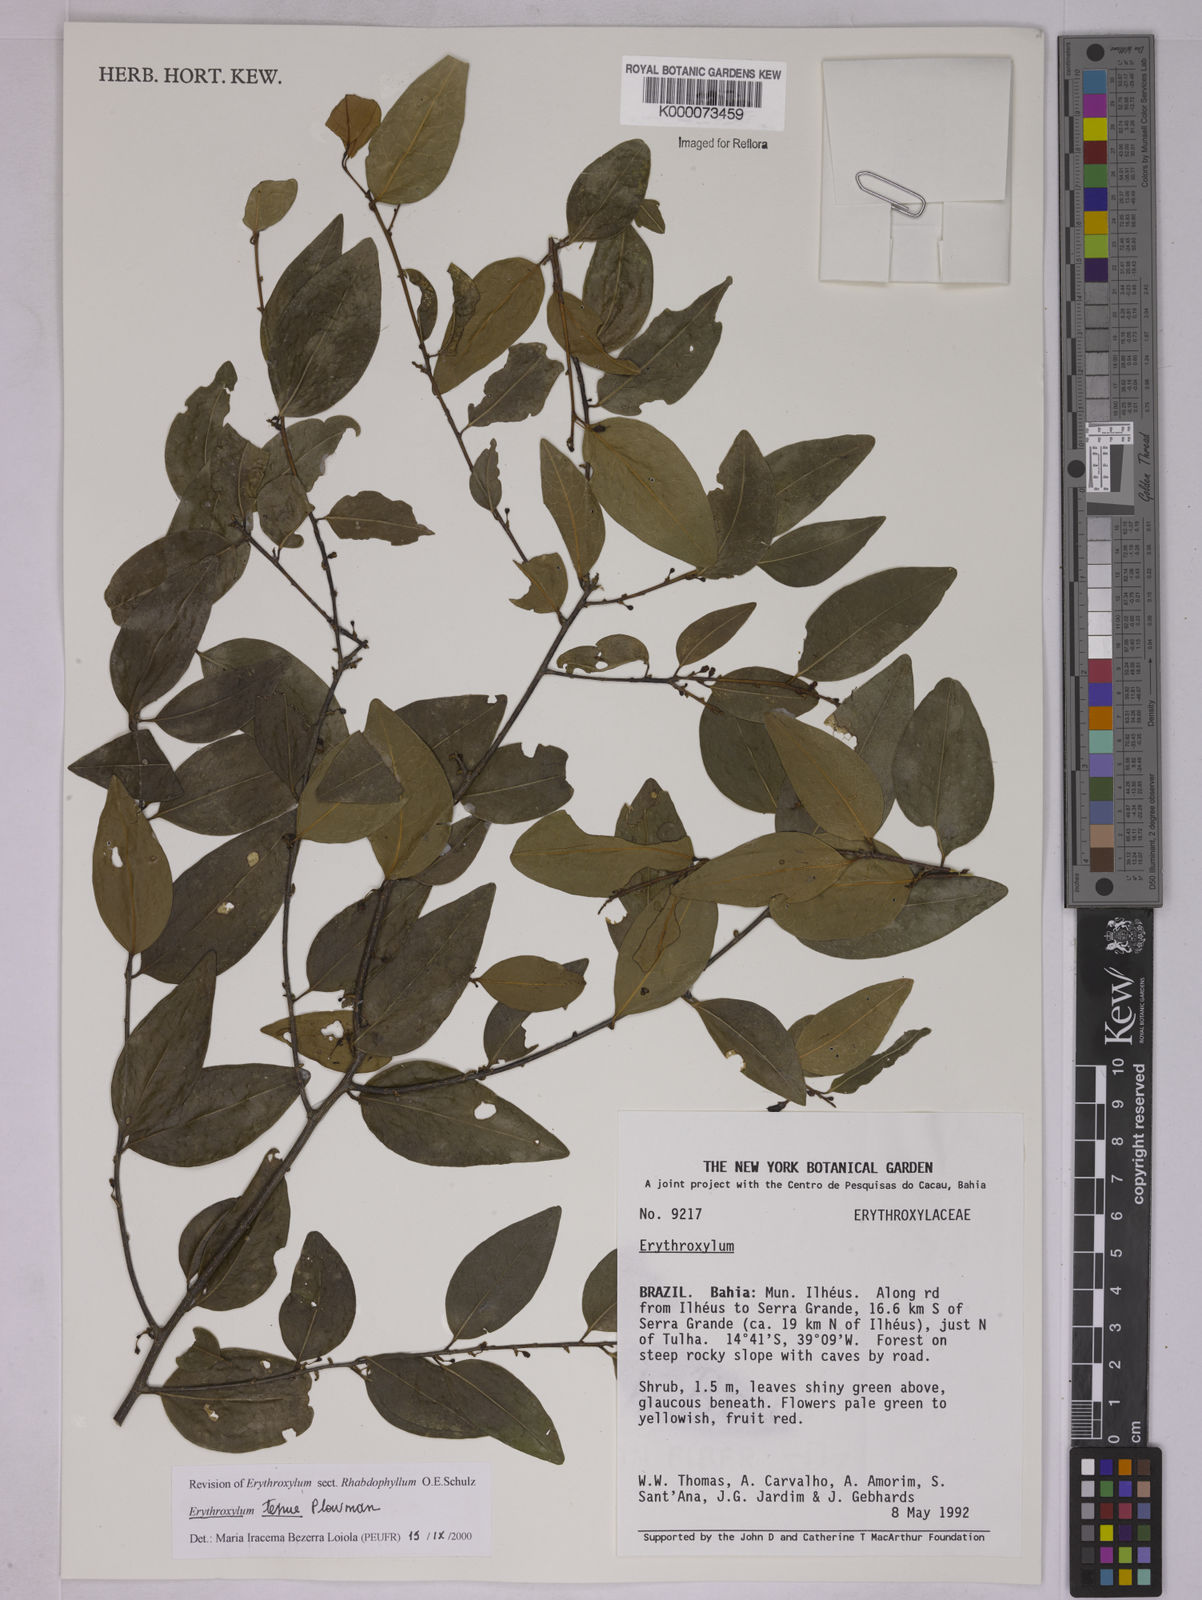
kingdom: Plantae
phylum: Tracheophyta
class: Magnoliopsida
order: Malpighiales
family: Erythroxylaceae
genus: Erythroxylum
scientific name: Erythroxylum tenue
